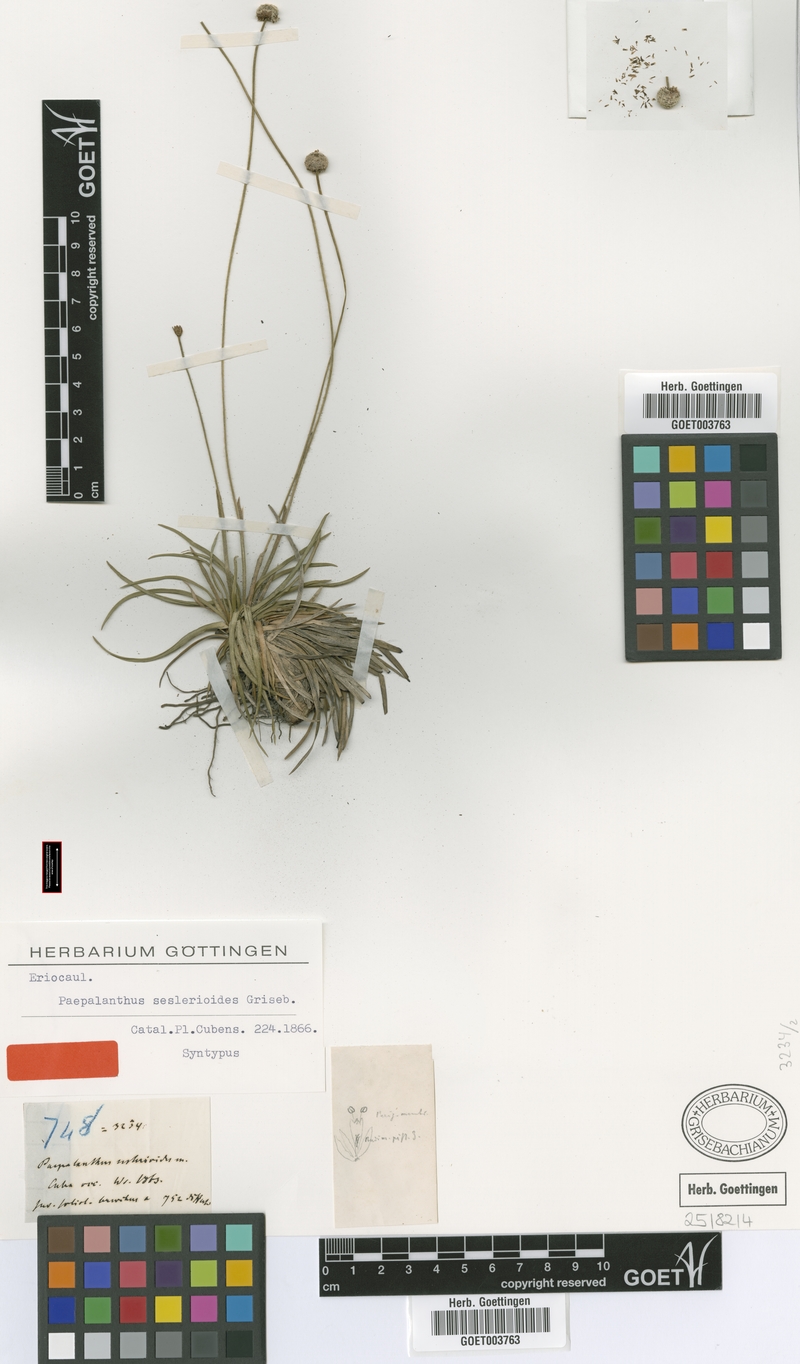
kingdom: Plantae
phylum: Tracheophyta
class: Liliopsida
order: Poales
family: Eriocaulaceae
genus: Paepalanthus
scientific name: Paepalanthus seslerioides
